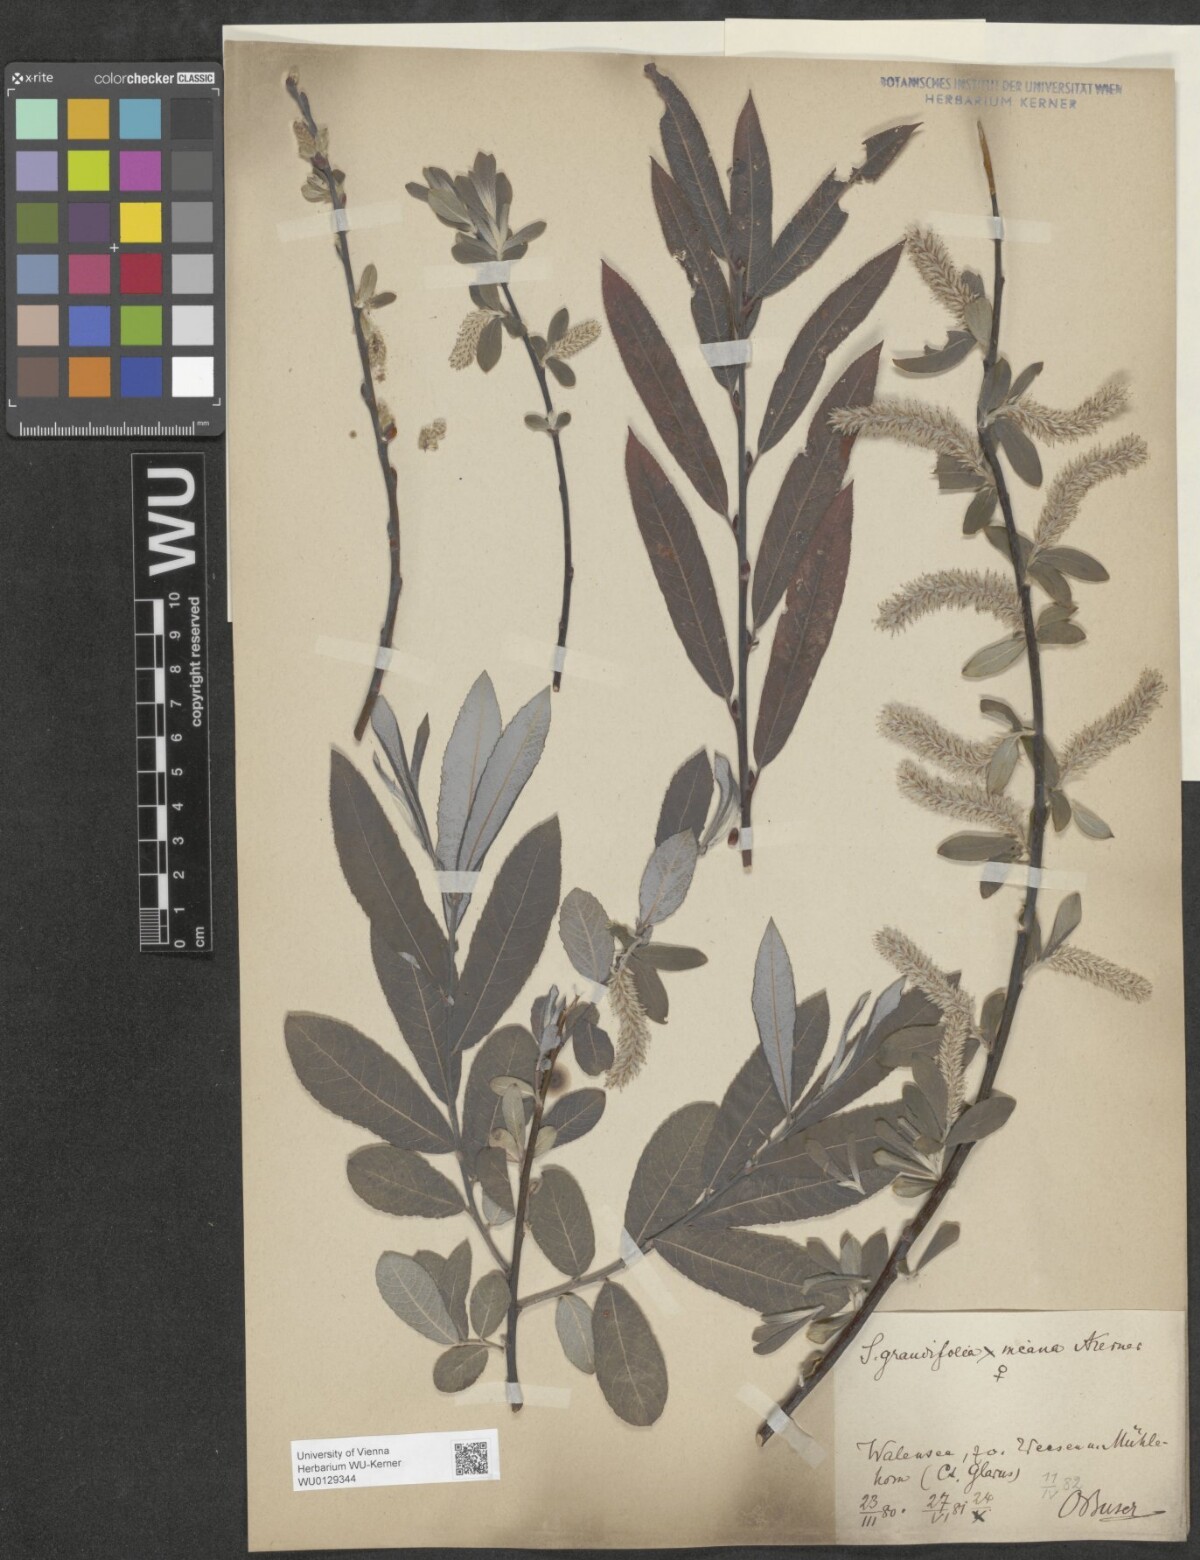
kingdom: Plantae
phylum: Tracheophyta
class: Magnoliopsida
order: Malpighiales
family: Salicaceae
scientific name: Salicaceae
